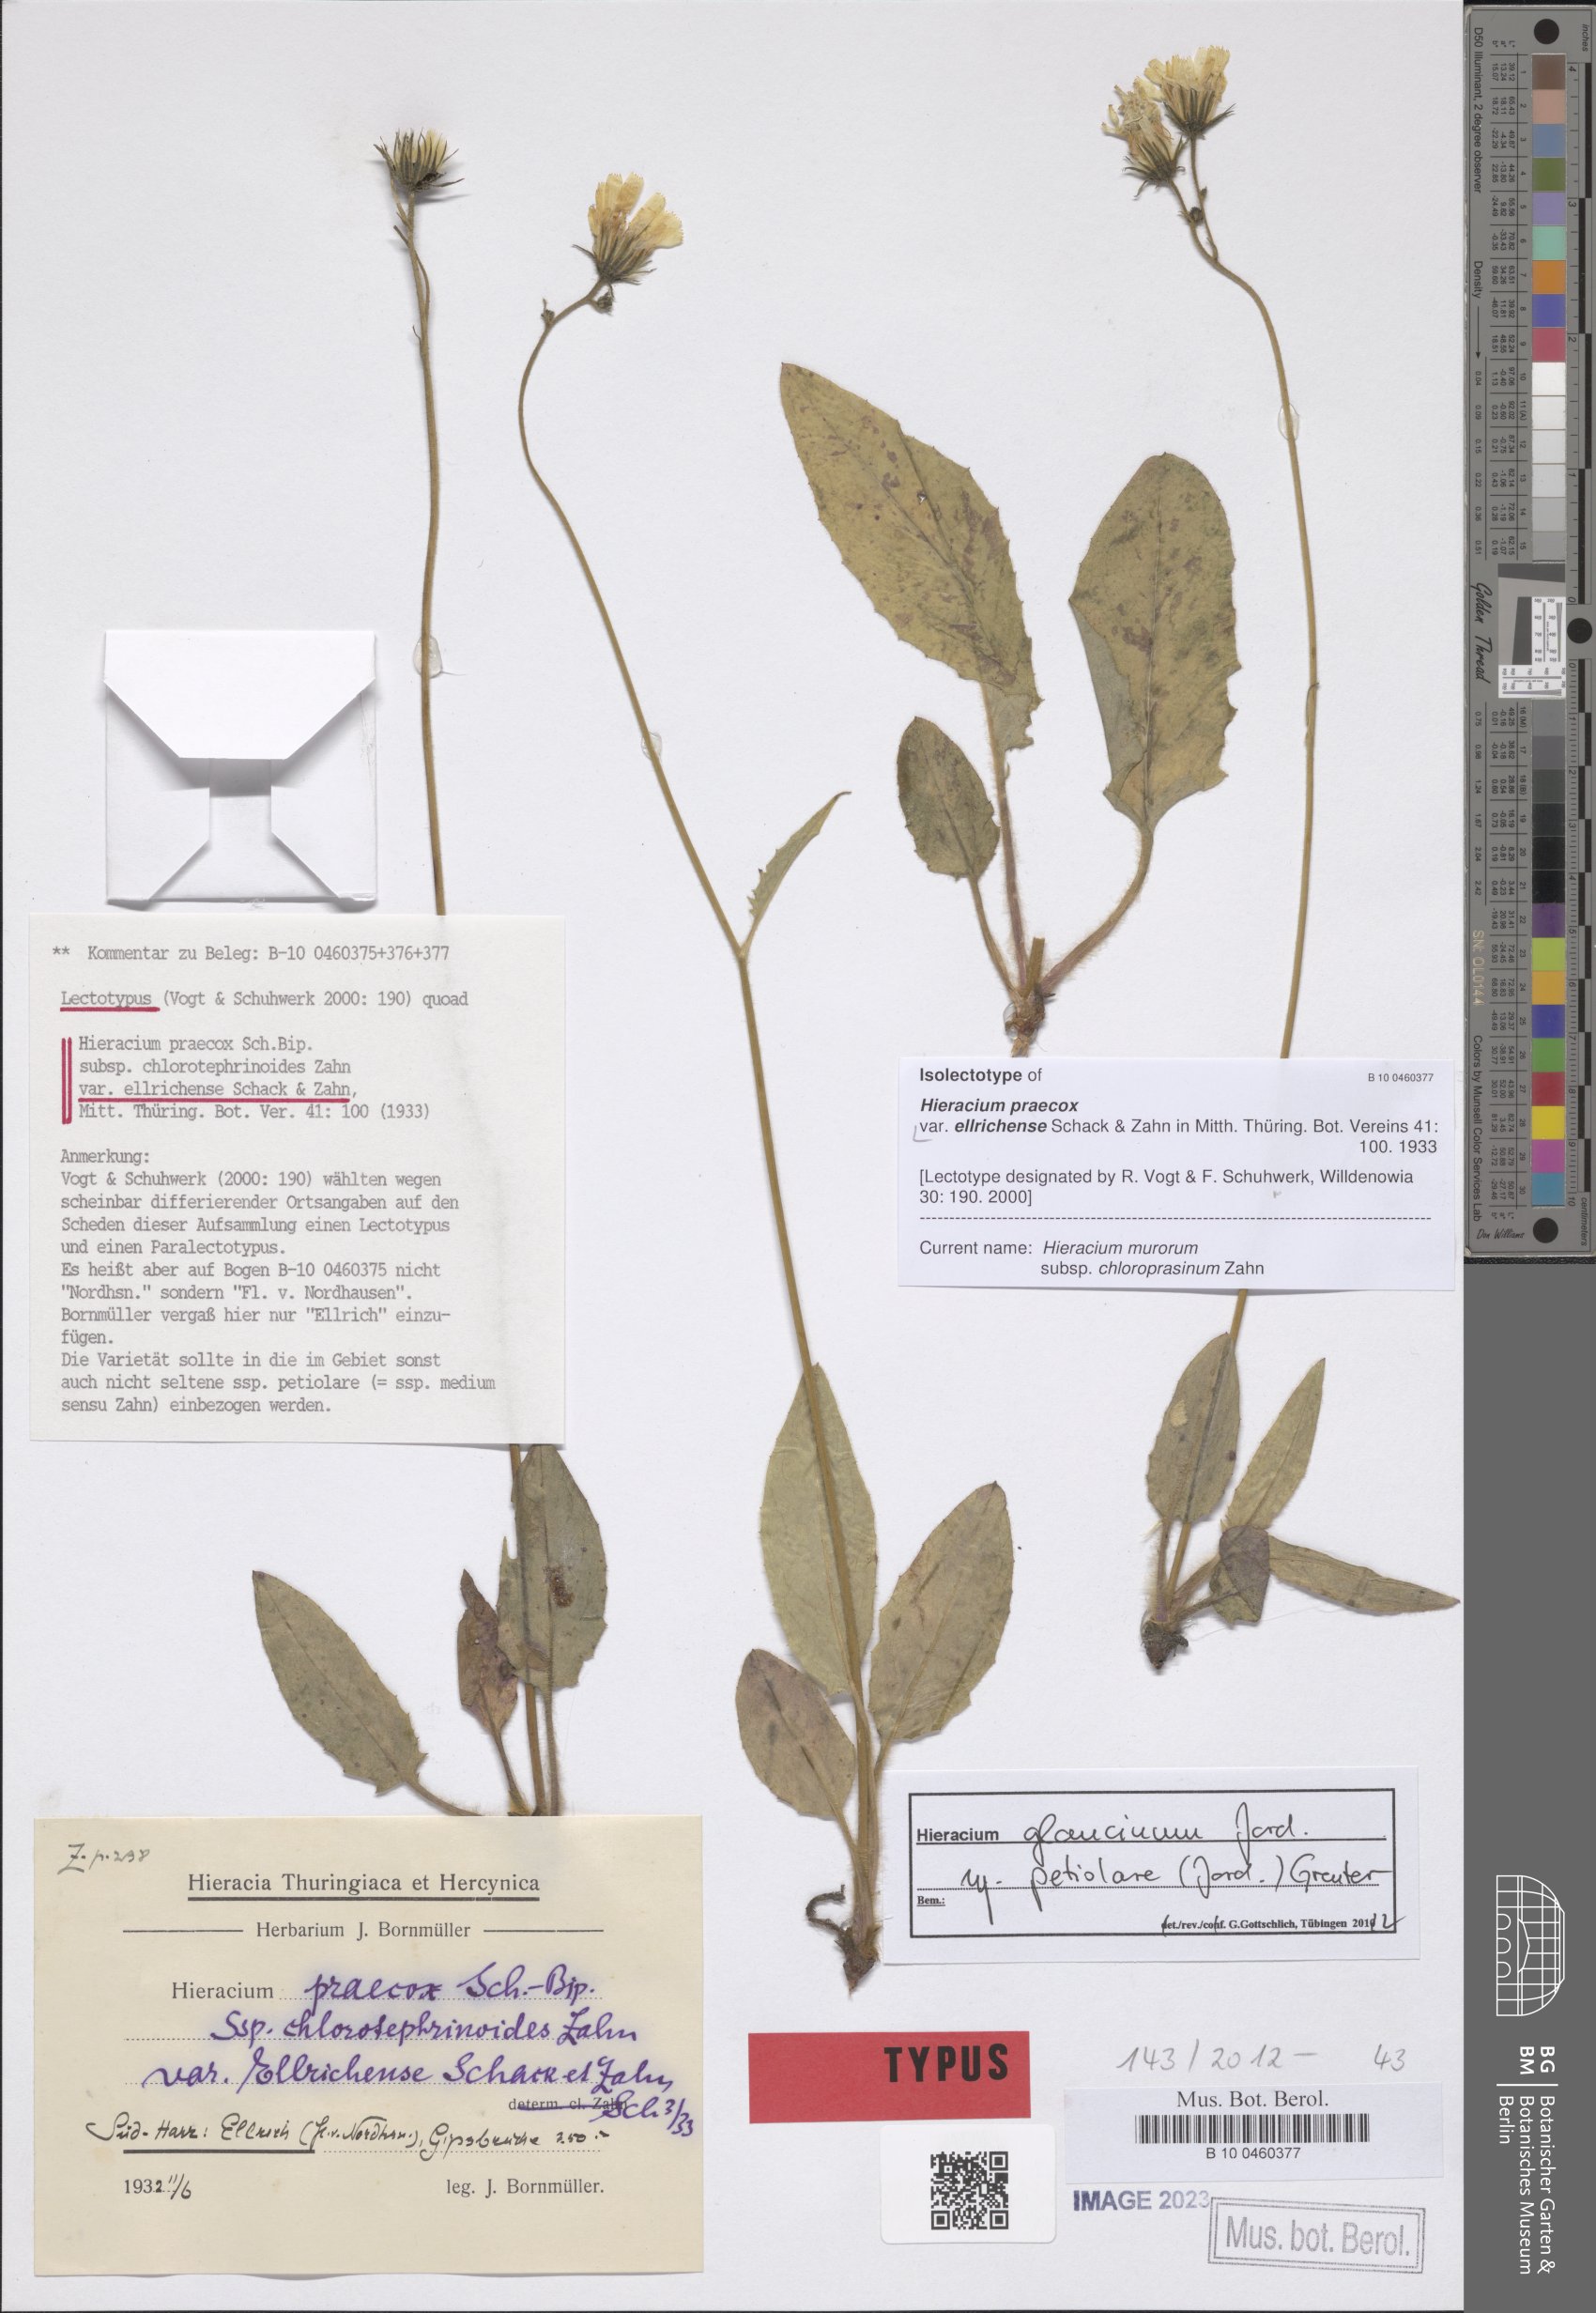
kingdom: Plantae
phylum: Tracheophyta
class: Magnoliopsida
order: Asterales
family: Asteraceae
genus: Hieracium
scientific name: Hieracium praecox
